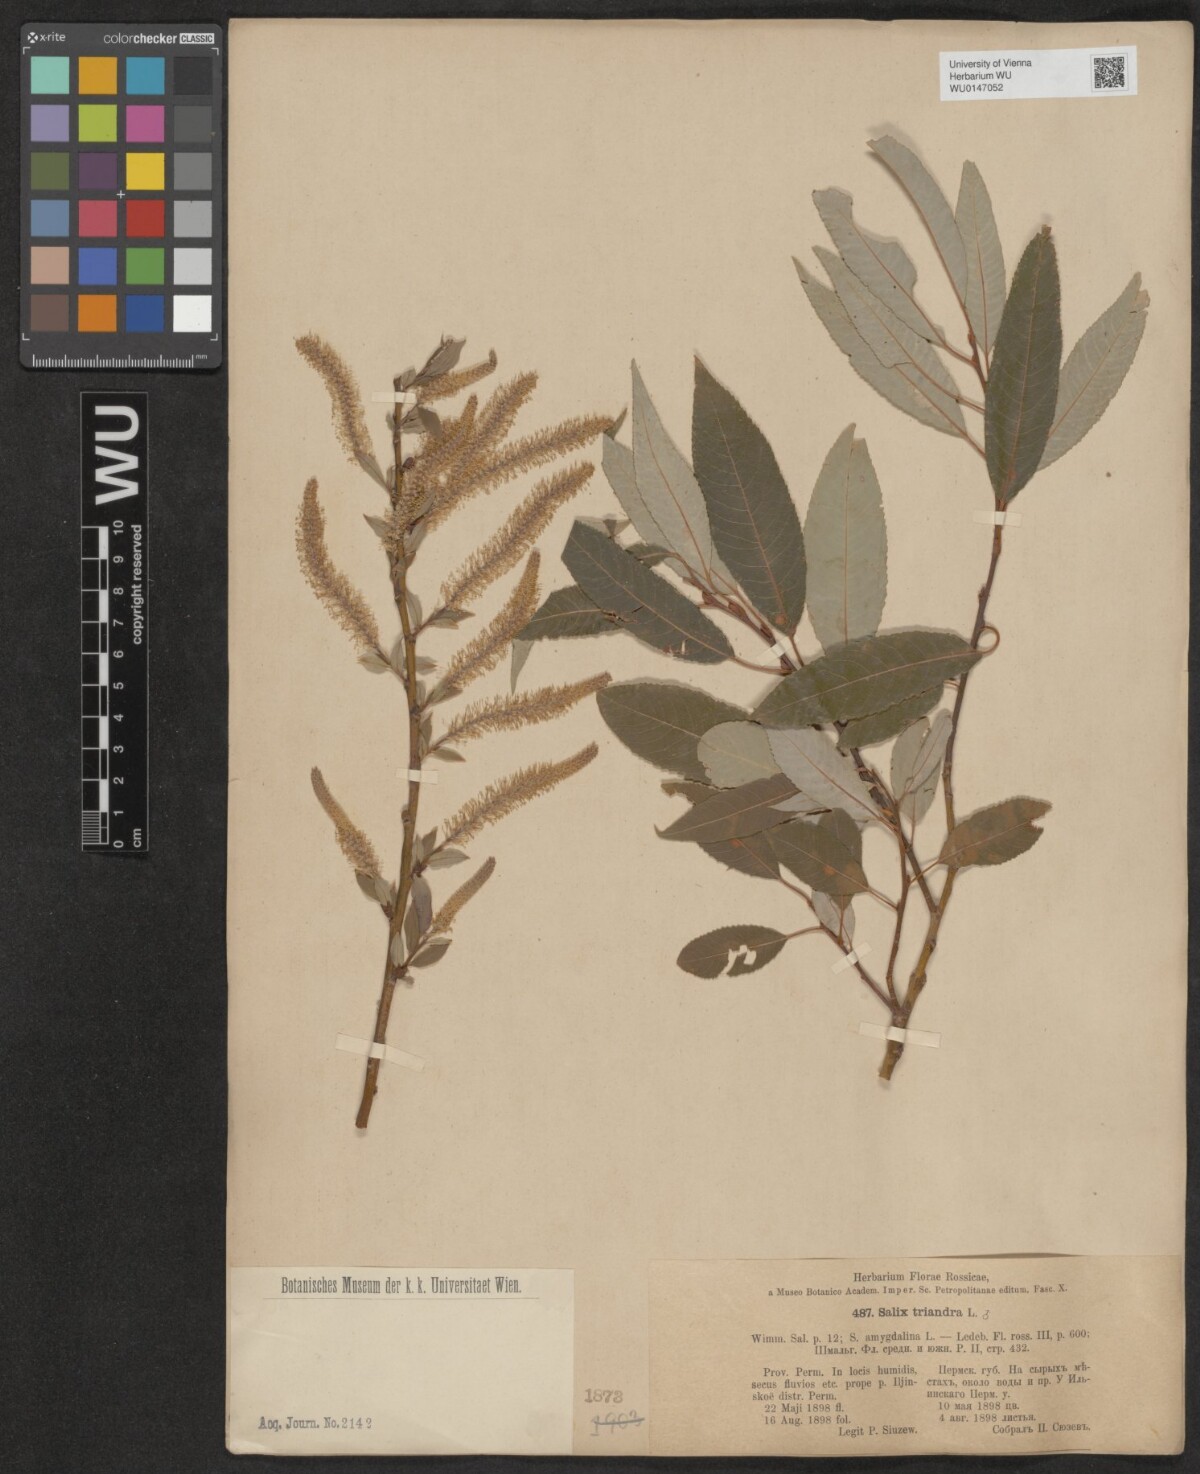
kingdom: Plantae
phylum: Tracheophyta
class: Magnoliopsida
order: Malpighiales
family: Salicaceae
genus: Salix
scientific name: Salix triandra
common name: Almond willow
